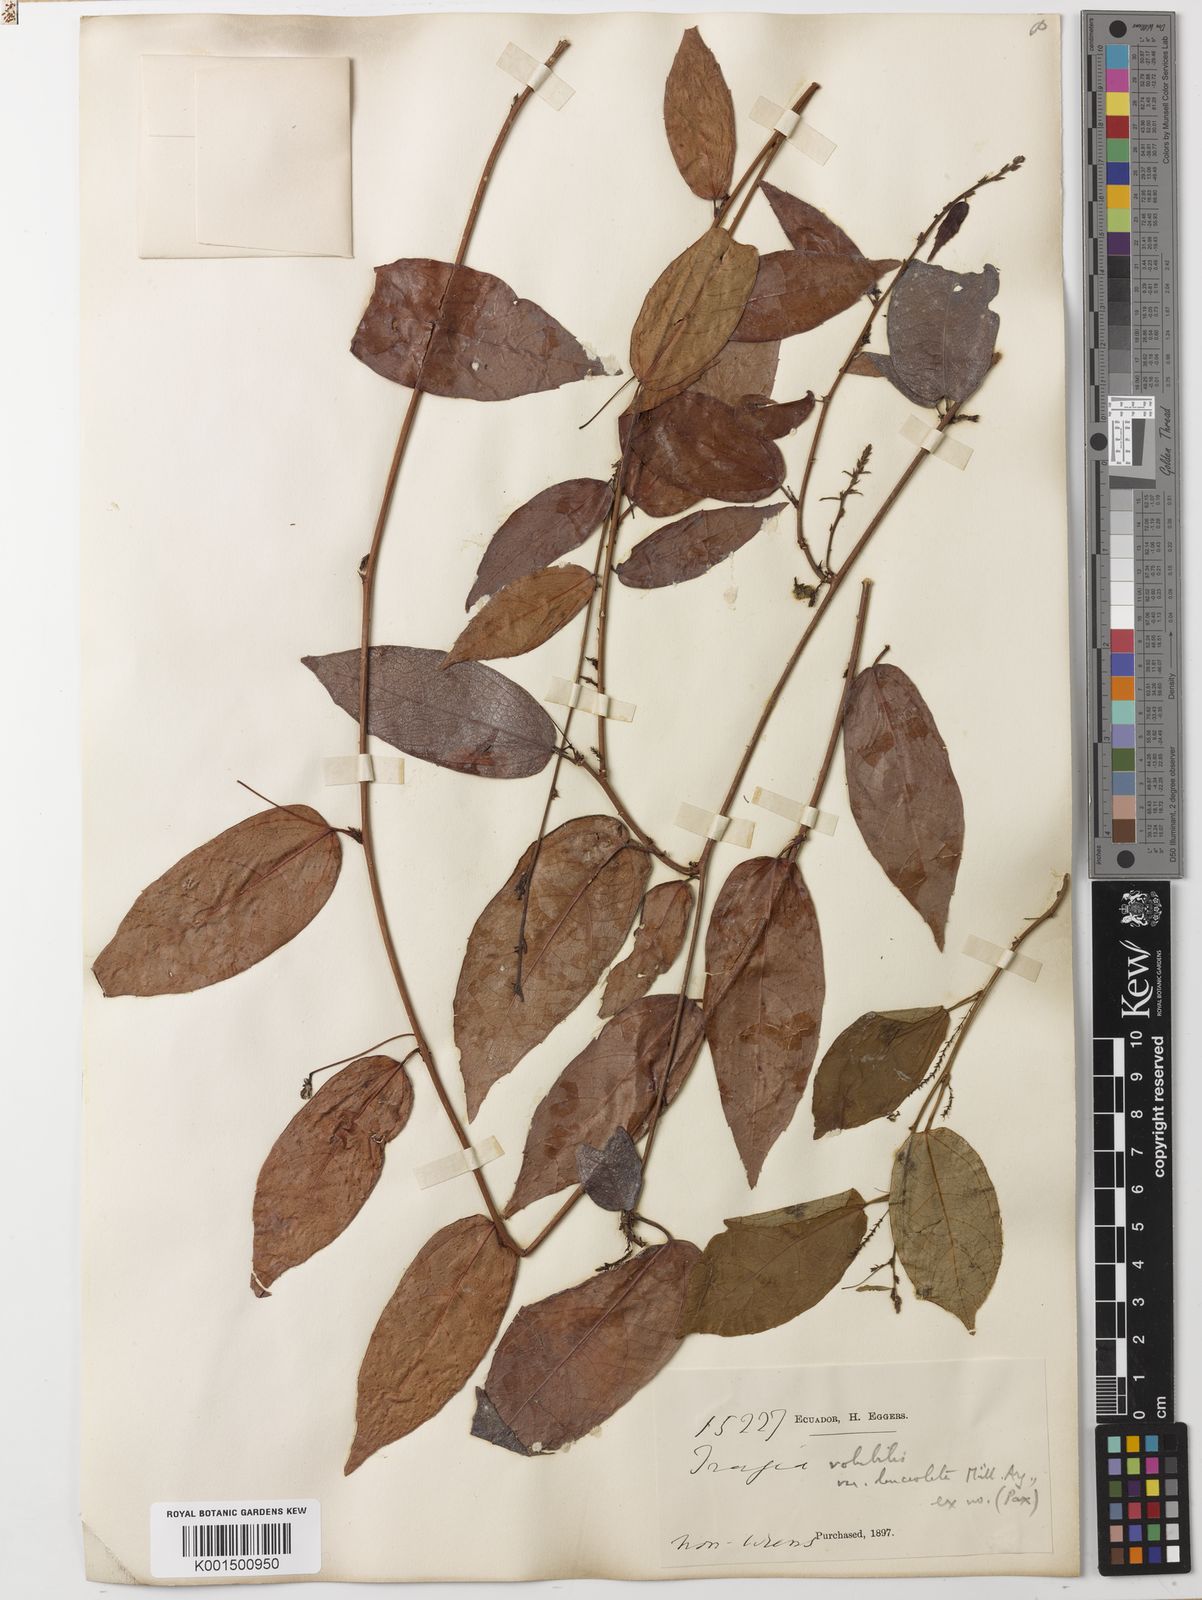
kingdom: Plantae
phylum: Tracheophyta
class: Magnoliopsida
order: Malpighiales
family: Euphorbiaceae
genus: Tragia
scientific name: Tragia volubilis
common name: Twining cow-itch
